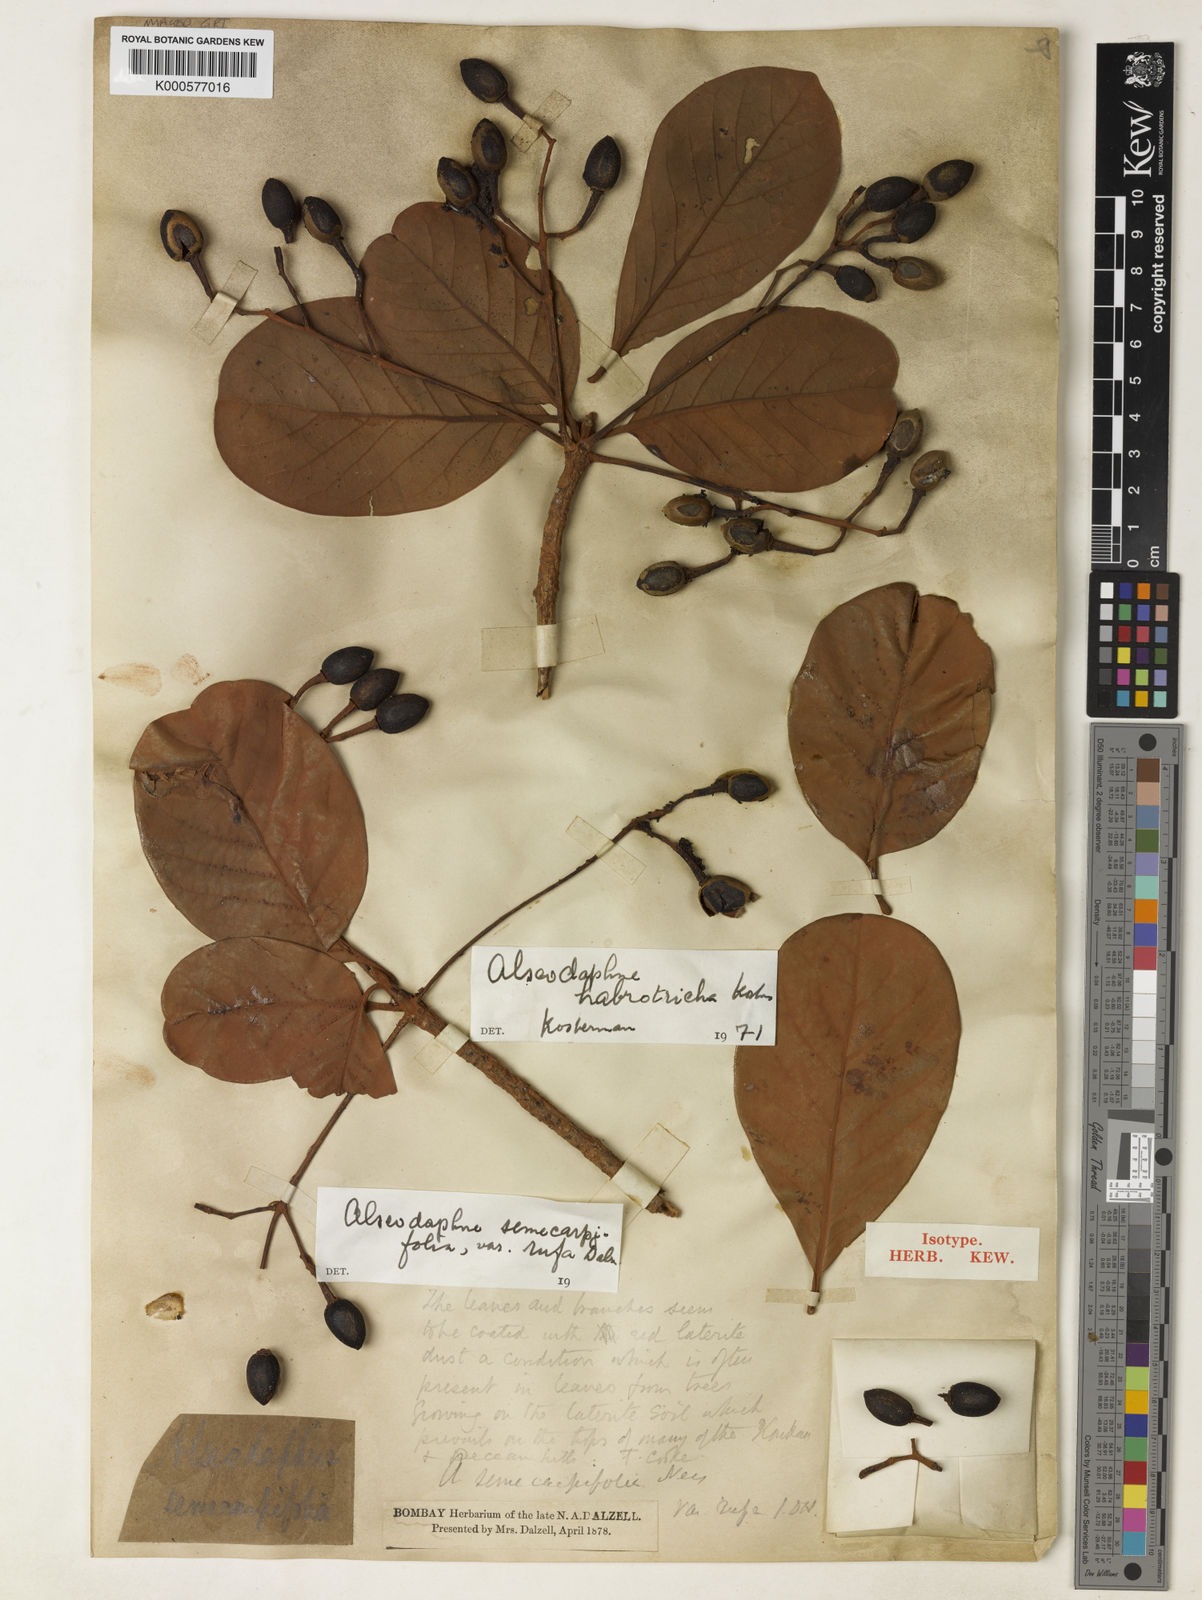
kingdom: Plantae
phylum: Tracheophyta
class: Magnoliopsida
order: Laurales
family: Lauraceae
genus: Alseodaphne
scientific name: Alseodaphne habrotricha
